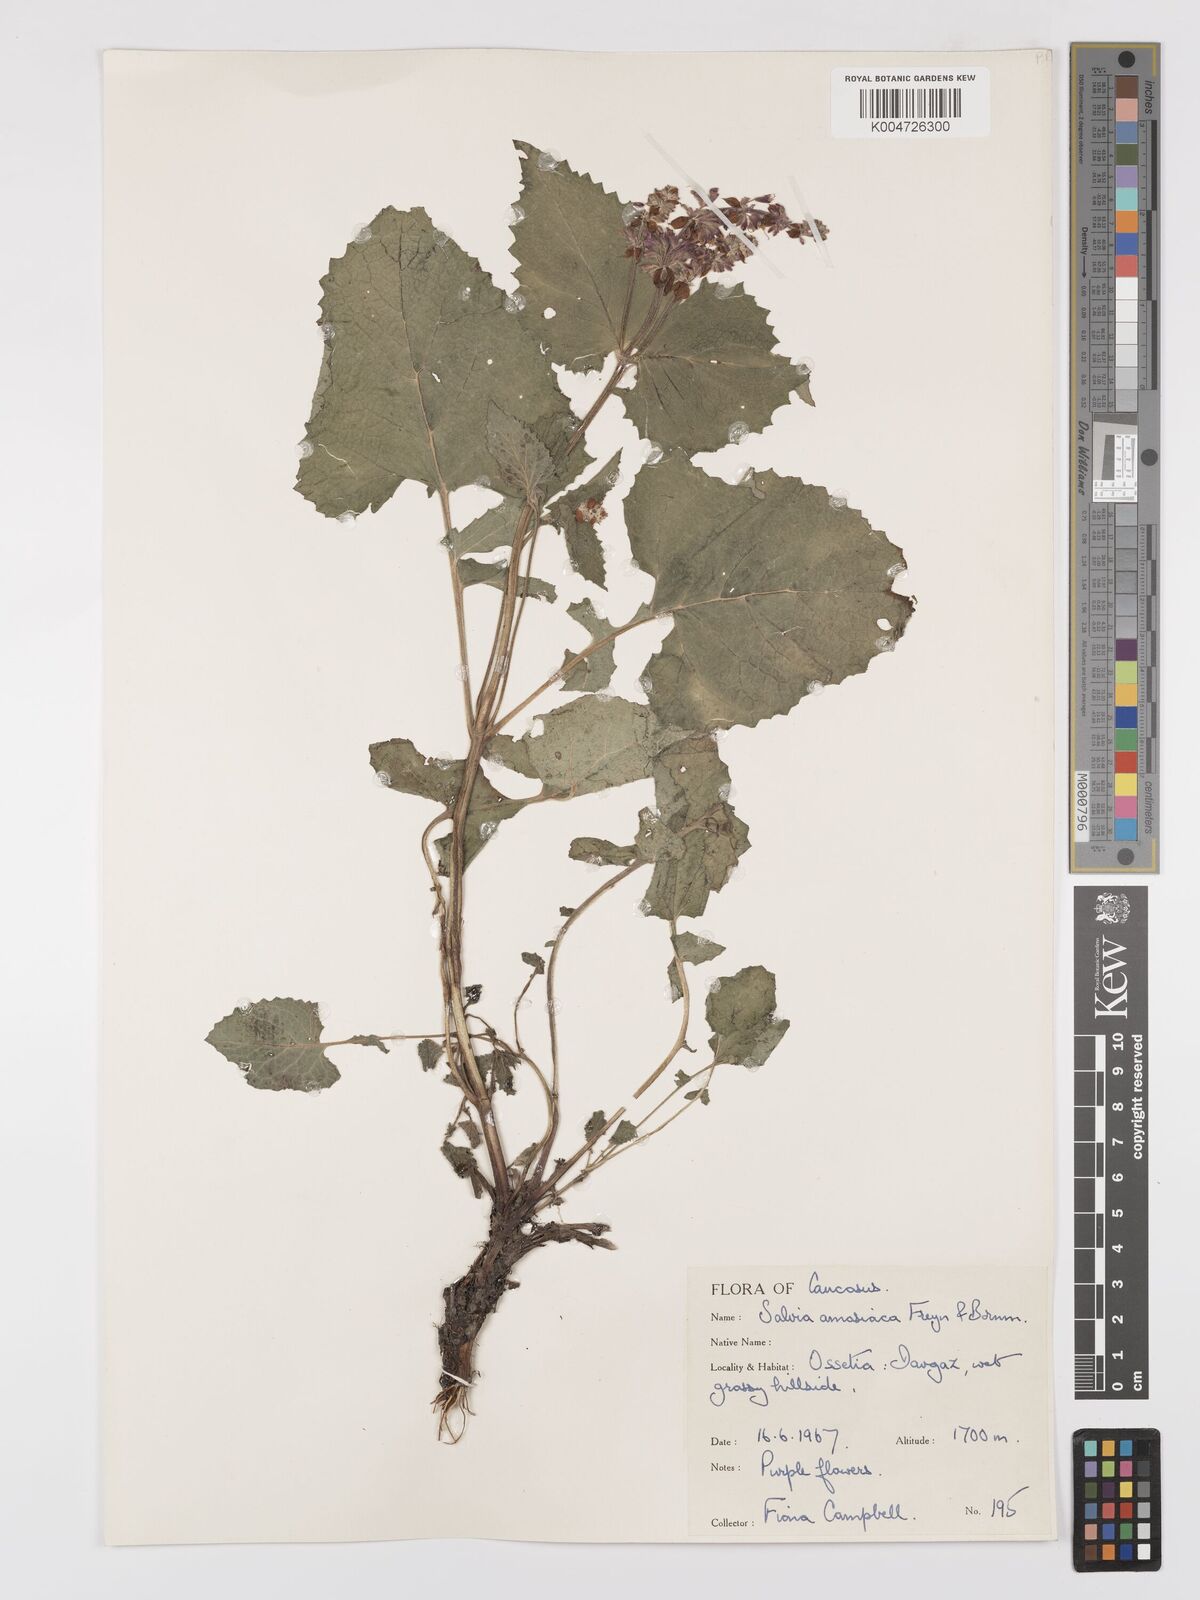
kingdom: Plantae
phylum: Tracheophyta
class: Magnoliopsida
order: Lamiales
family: Lamiaceae
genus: Salvia
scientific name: Salvia verticillata
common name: Whorled clary
